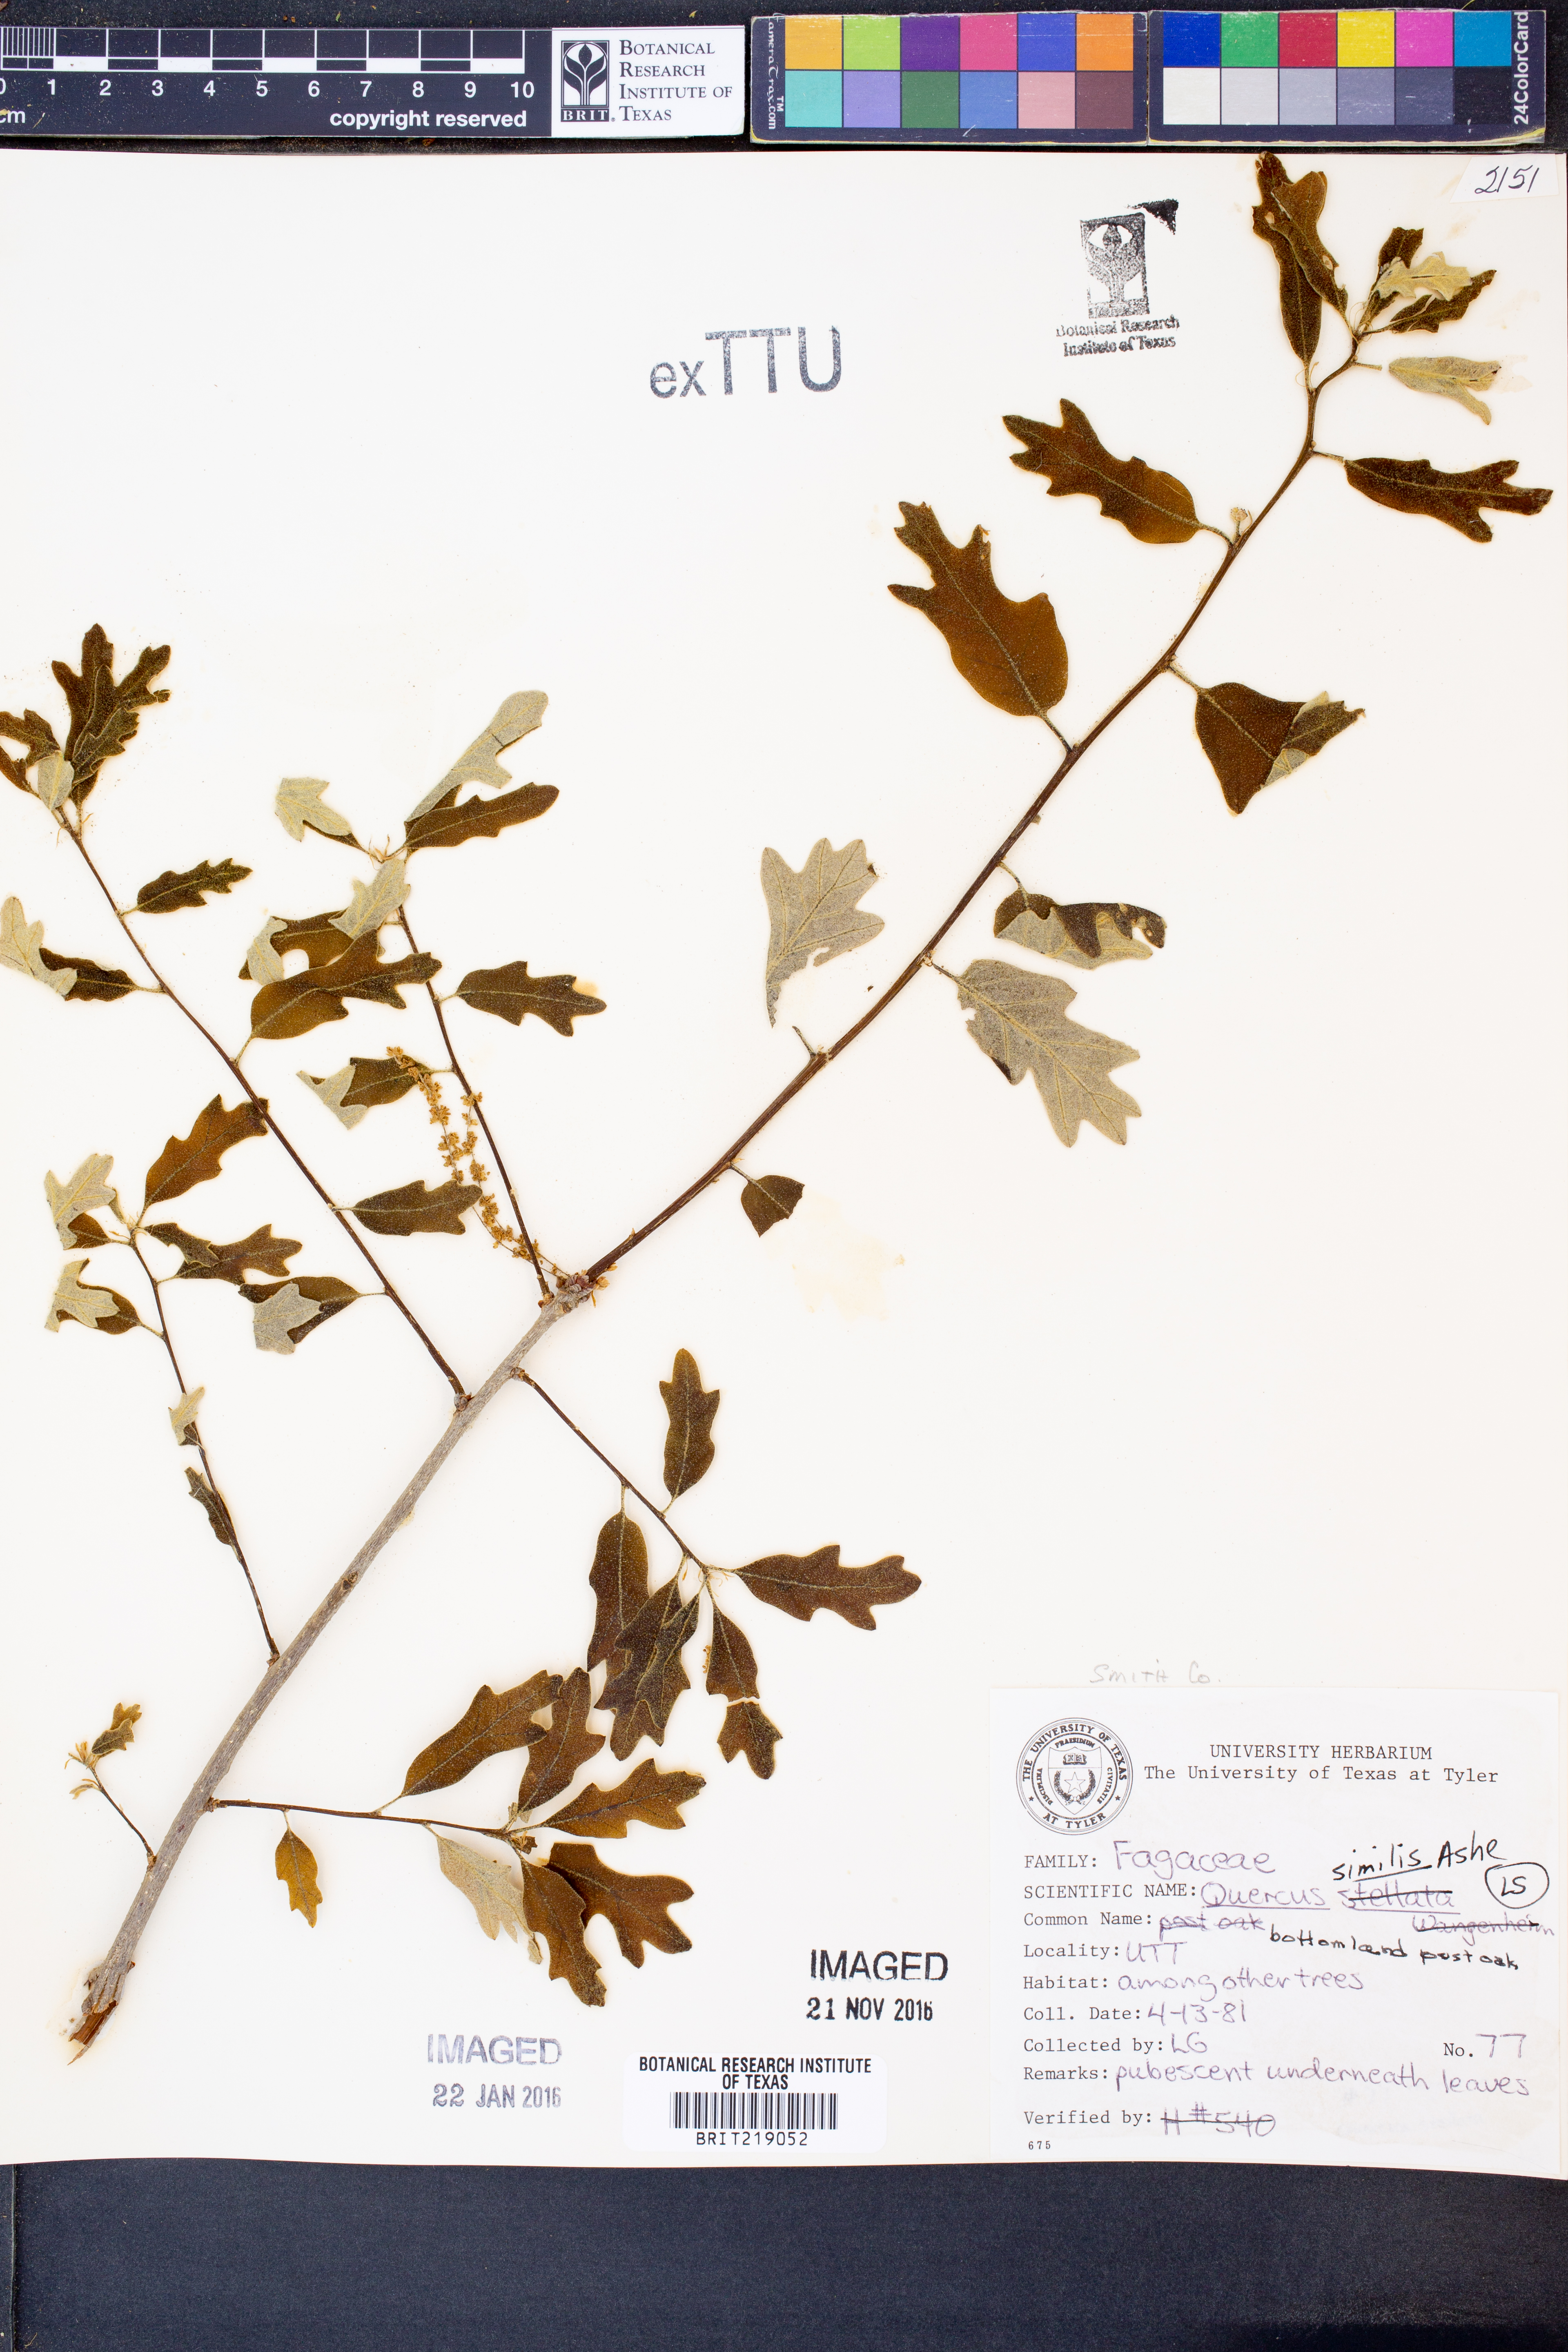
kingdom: Plantae
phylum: Tracheophyta
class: Magnoliopsida
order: Fagales
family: Fagaceae
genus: Quercus
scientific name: Quercus similis
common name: Delta post oak
